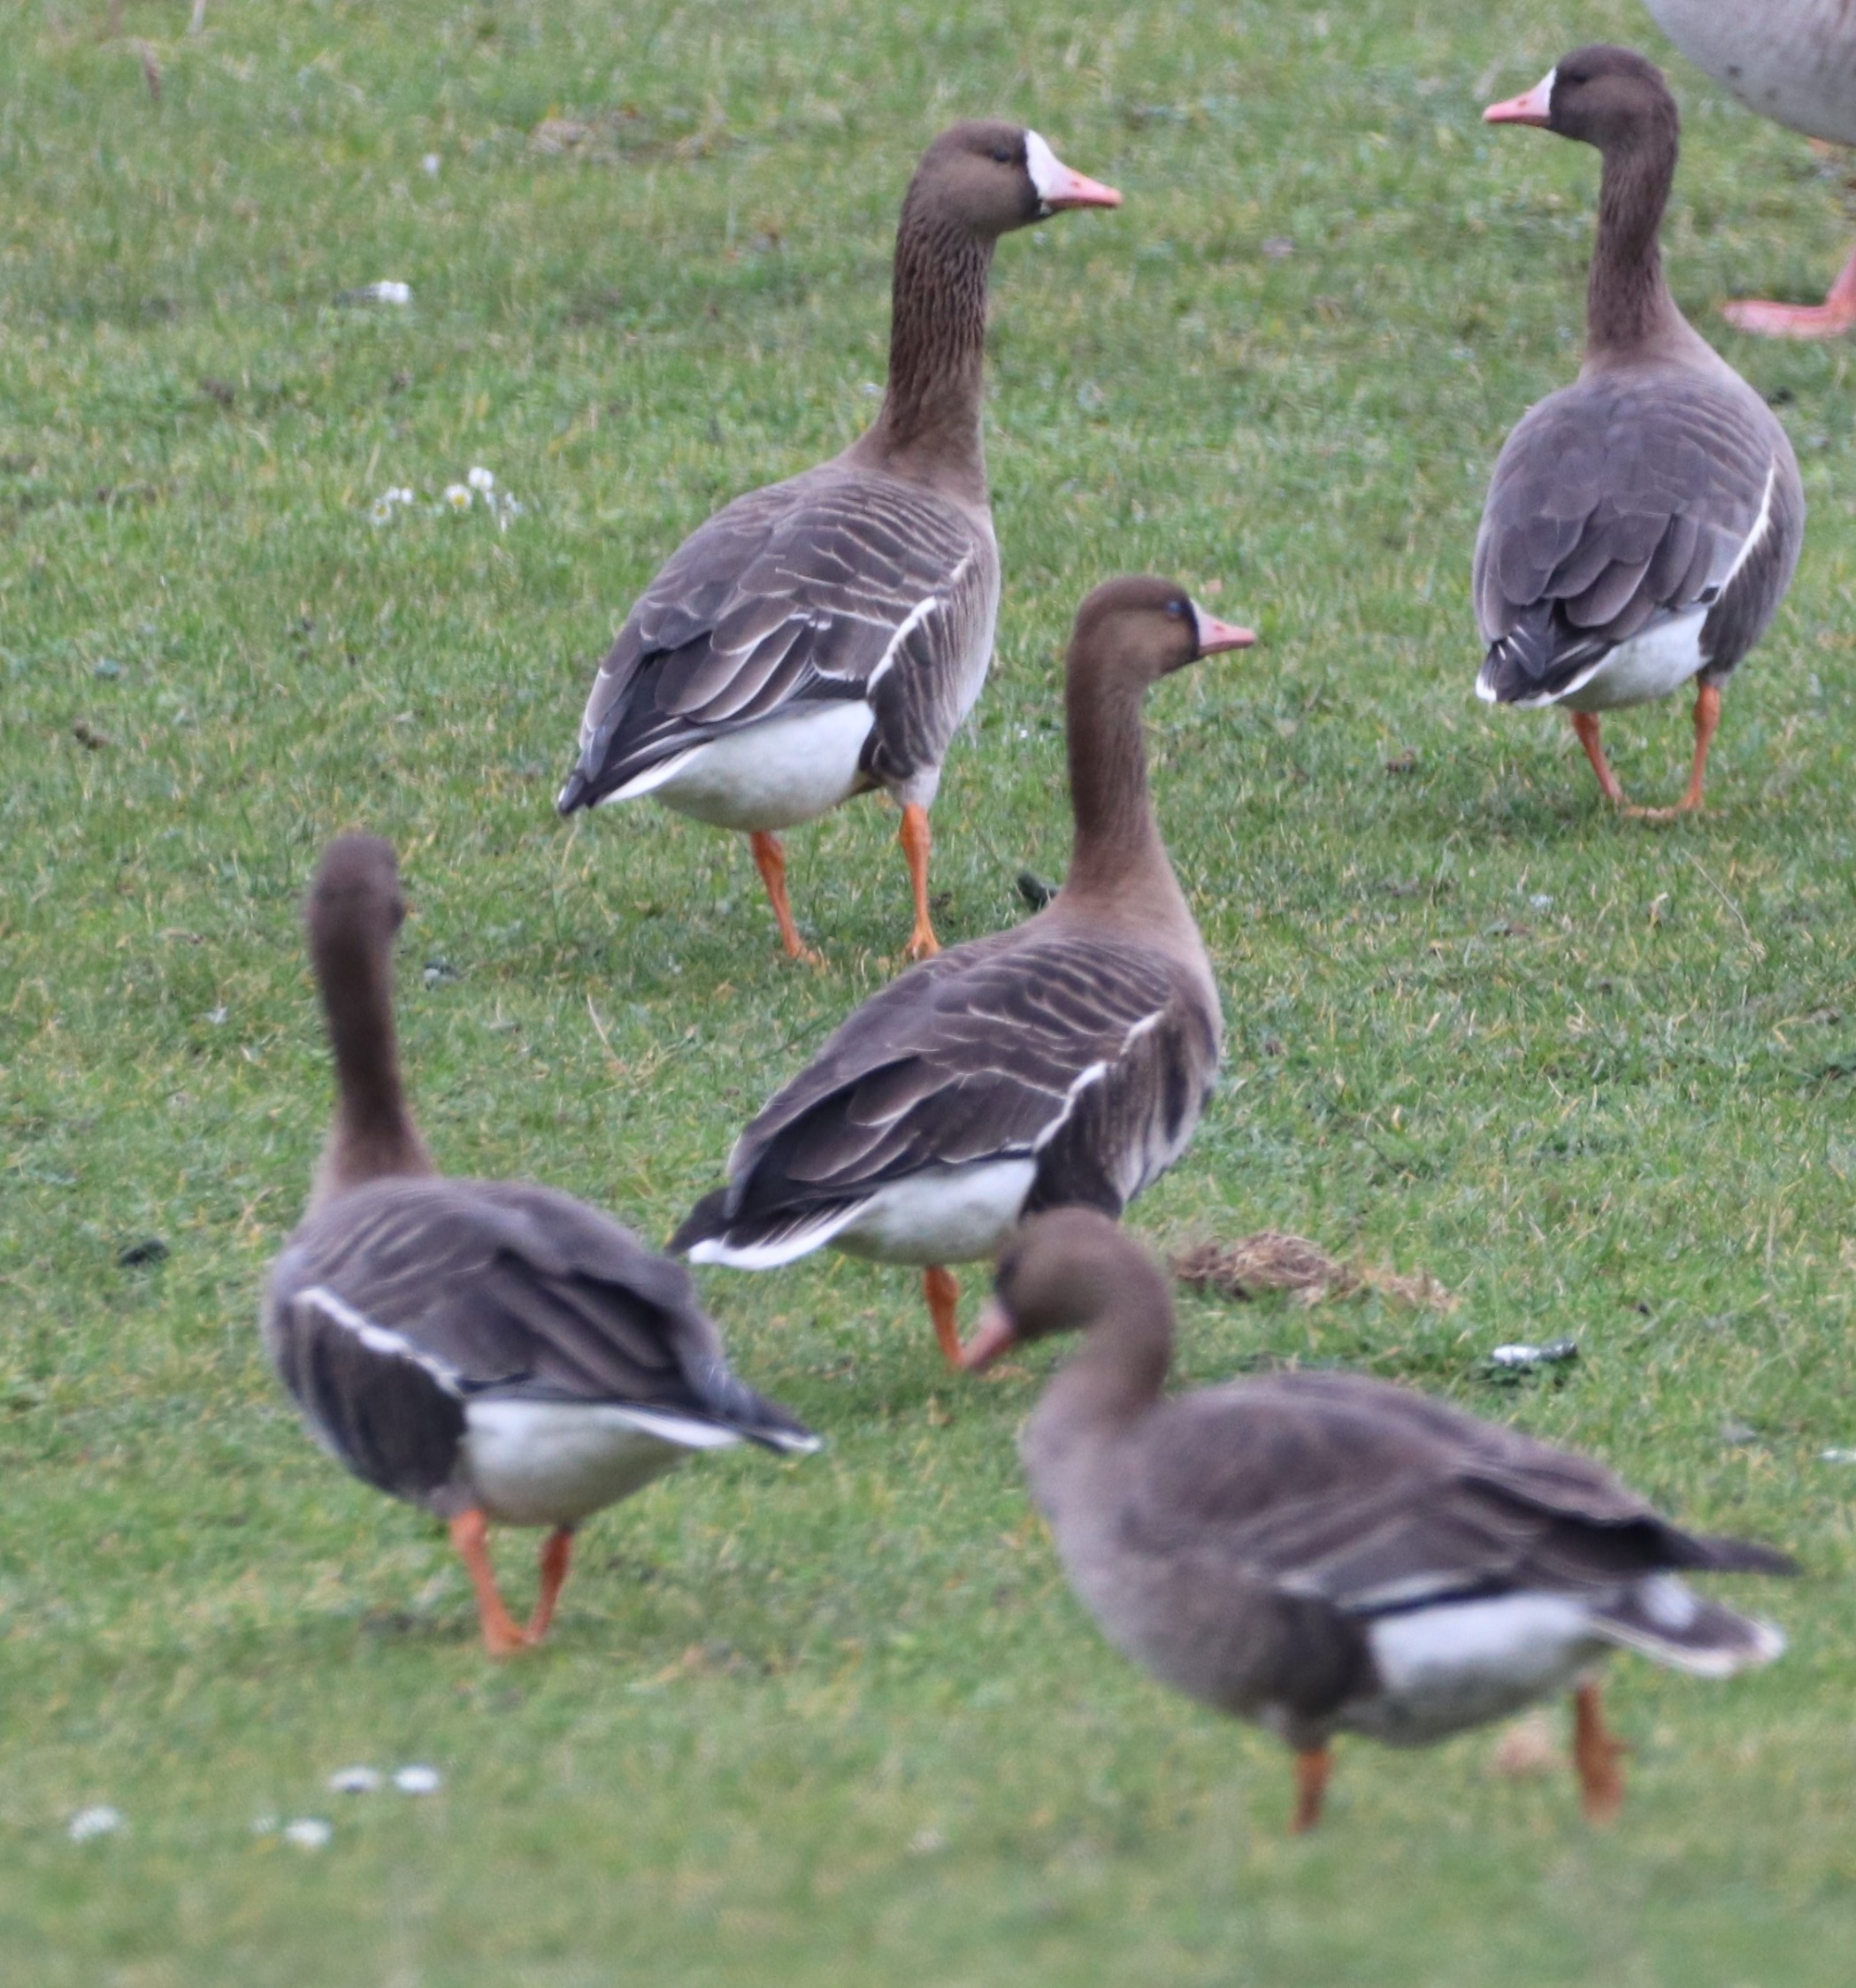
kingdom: Animalia
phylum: Chordata
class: Aves
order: Anseriformes
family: Anatidae
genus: Anser
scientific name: Anser albifrons
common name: Blisgås
